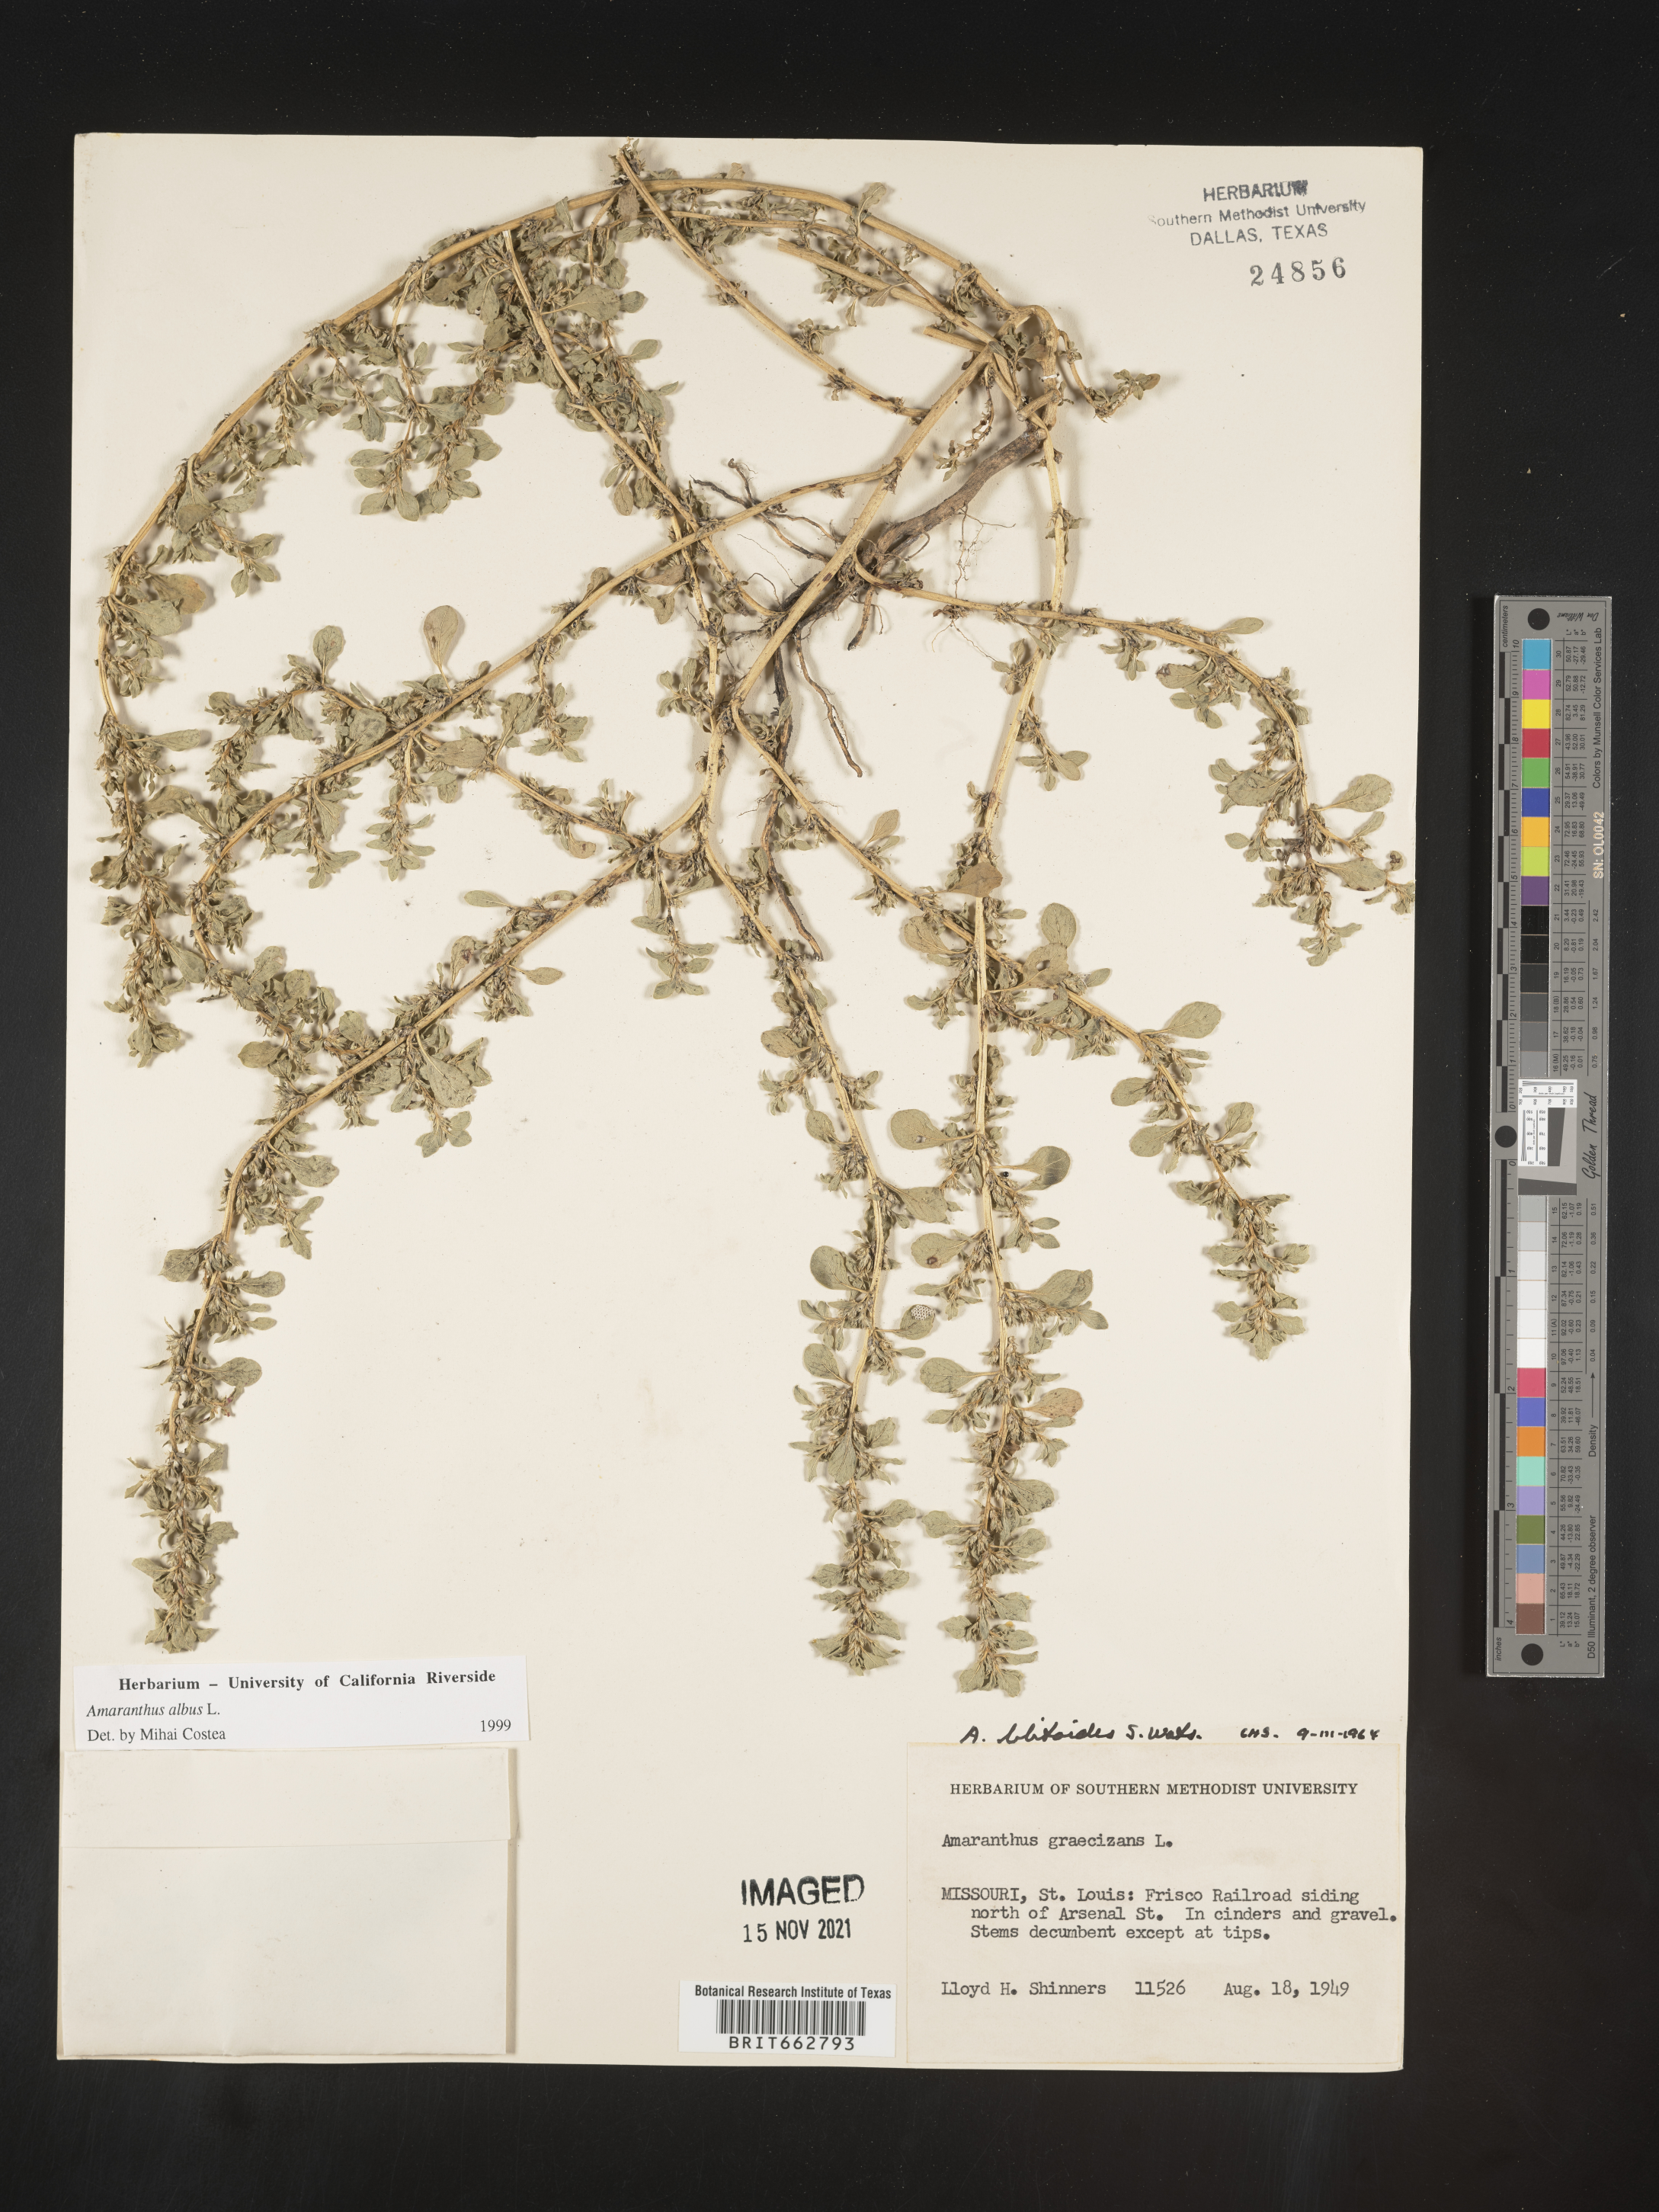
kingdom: Plantae
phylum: Tracheophyta
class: Magnoliopsida
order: Caryophyllales
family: Amaranthaceae
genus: Amaranthus
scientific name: Amaranthus blitoides
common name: Prostrate pigweed
